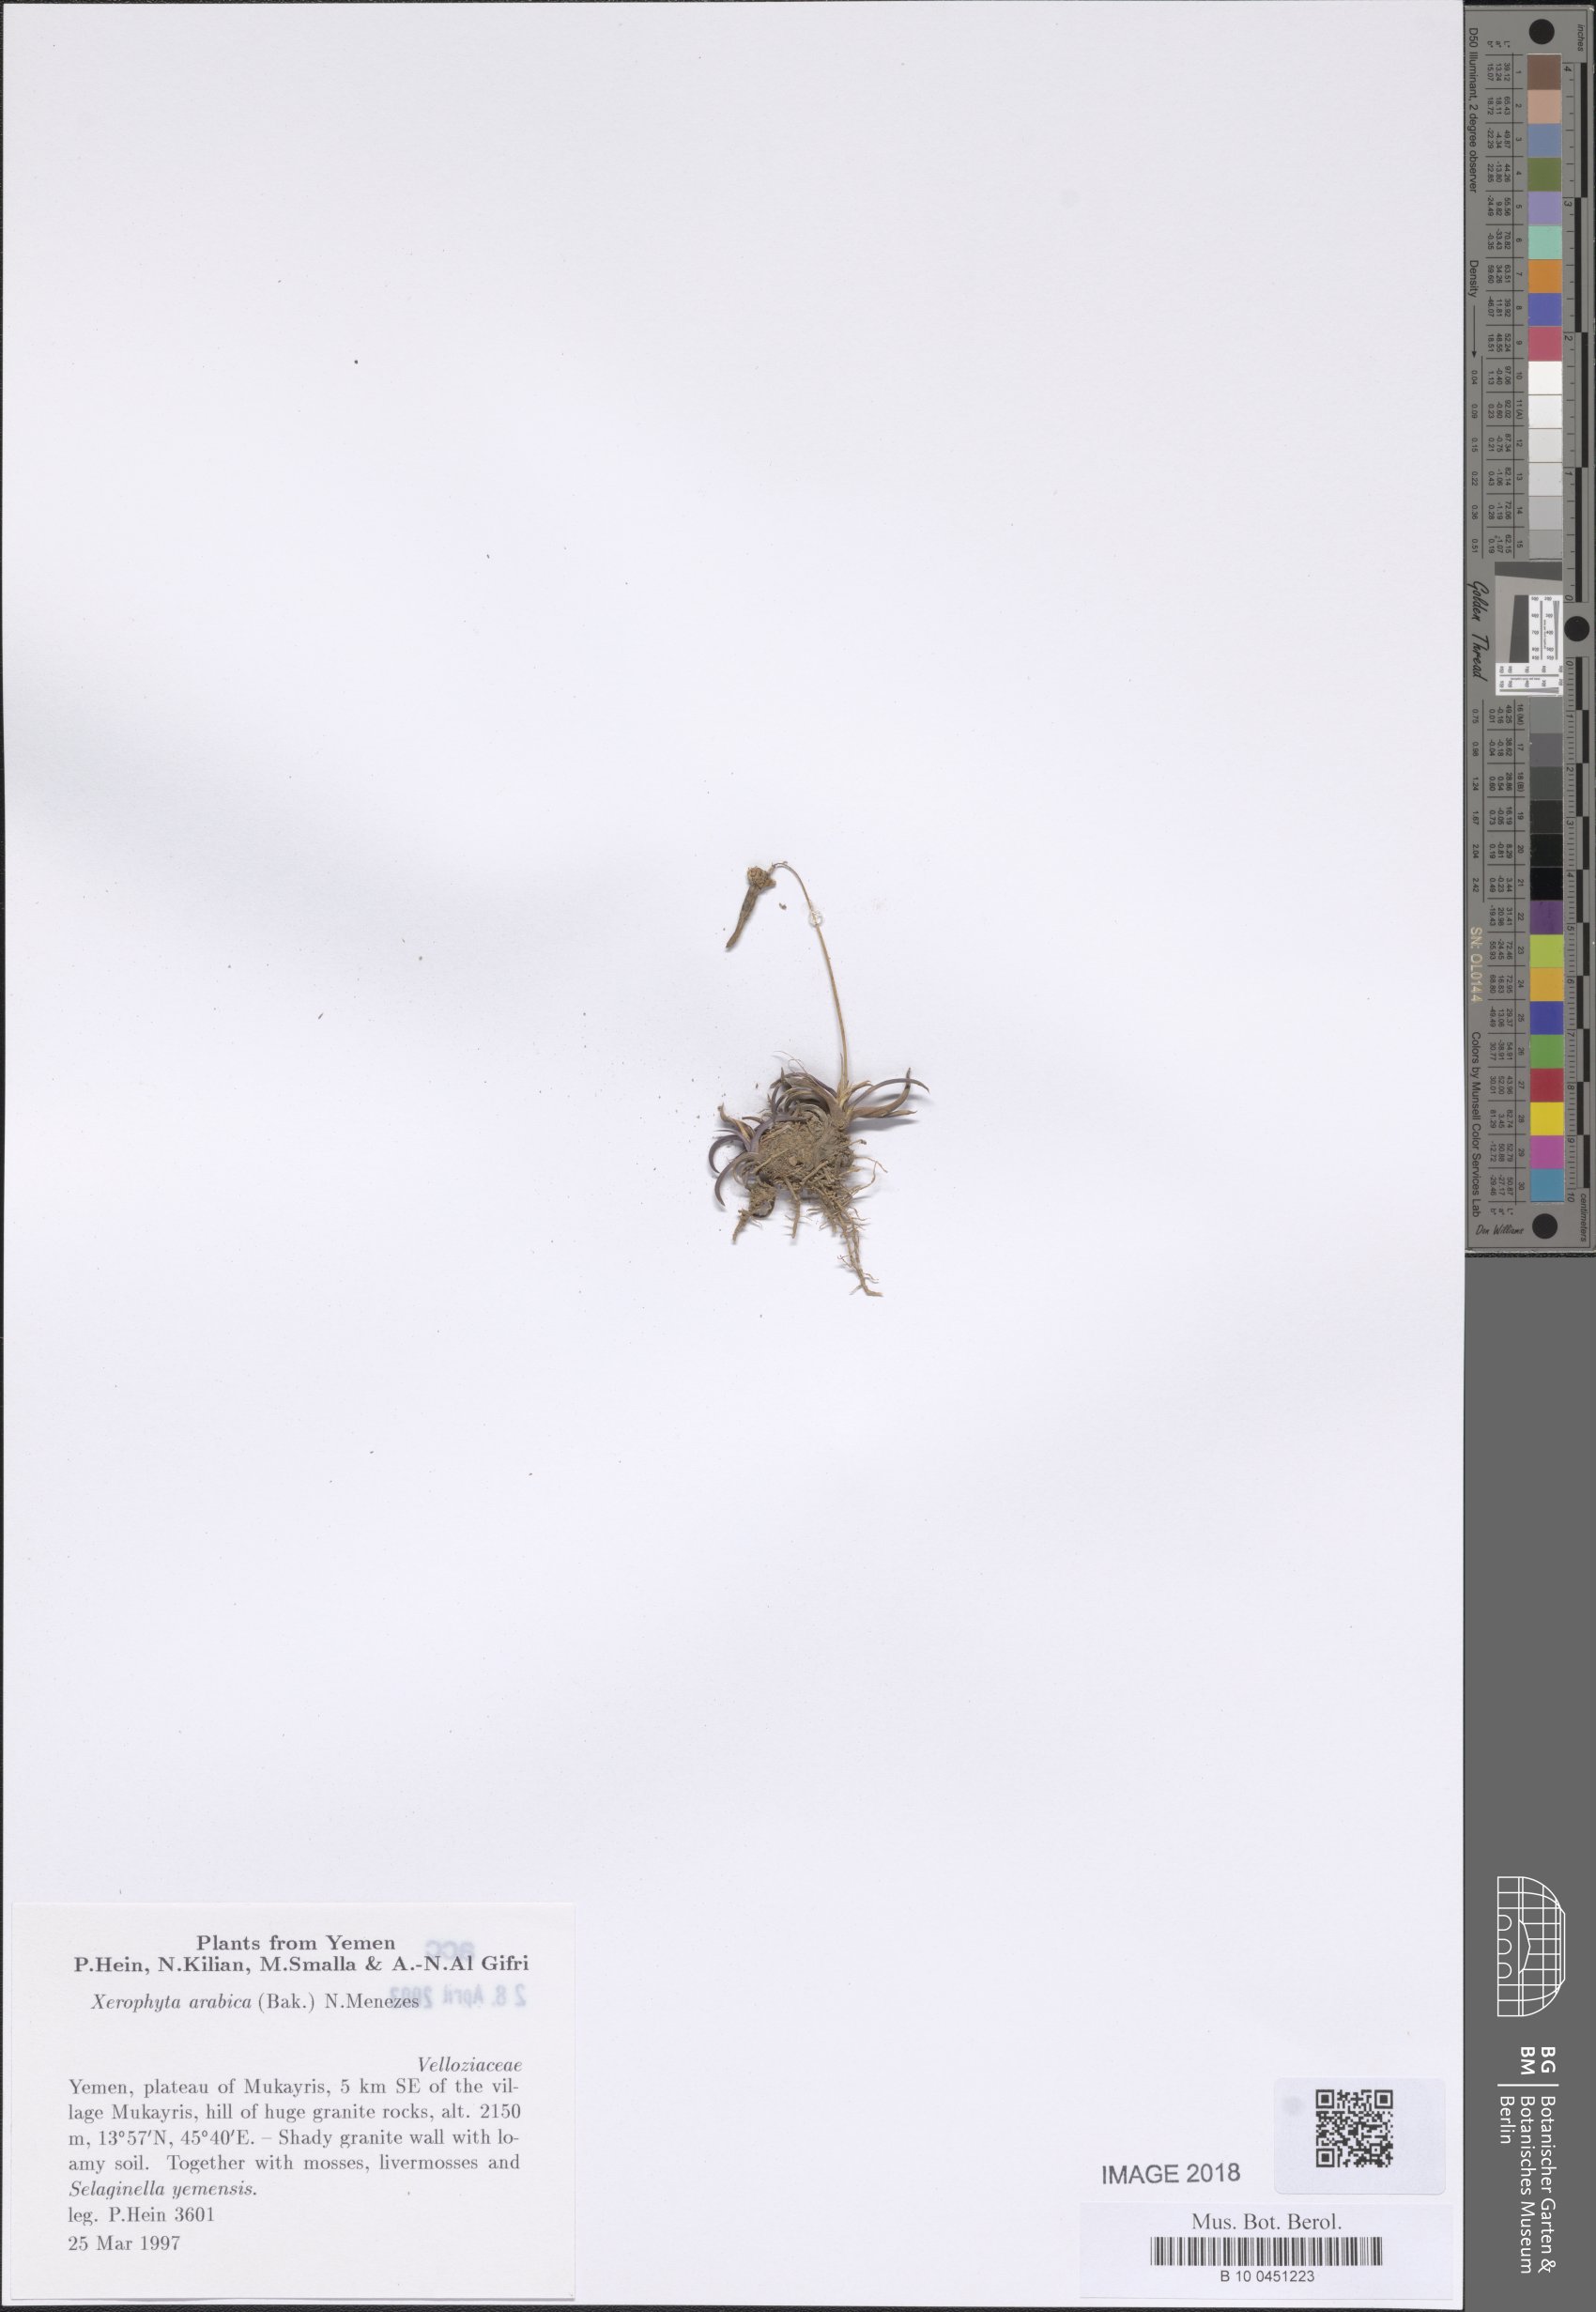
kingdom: Plantae
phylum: Tracheophyta
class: Liliopsida
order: Pandanales
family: Velloziaceae
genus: Xerophyta
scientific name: Xerophyta arabica
